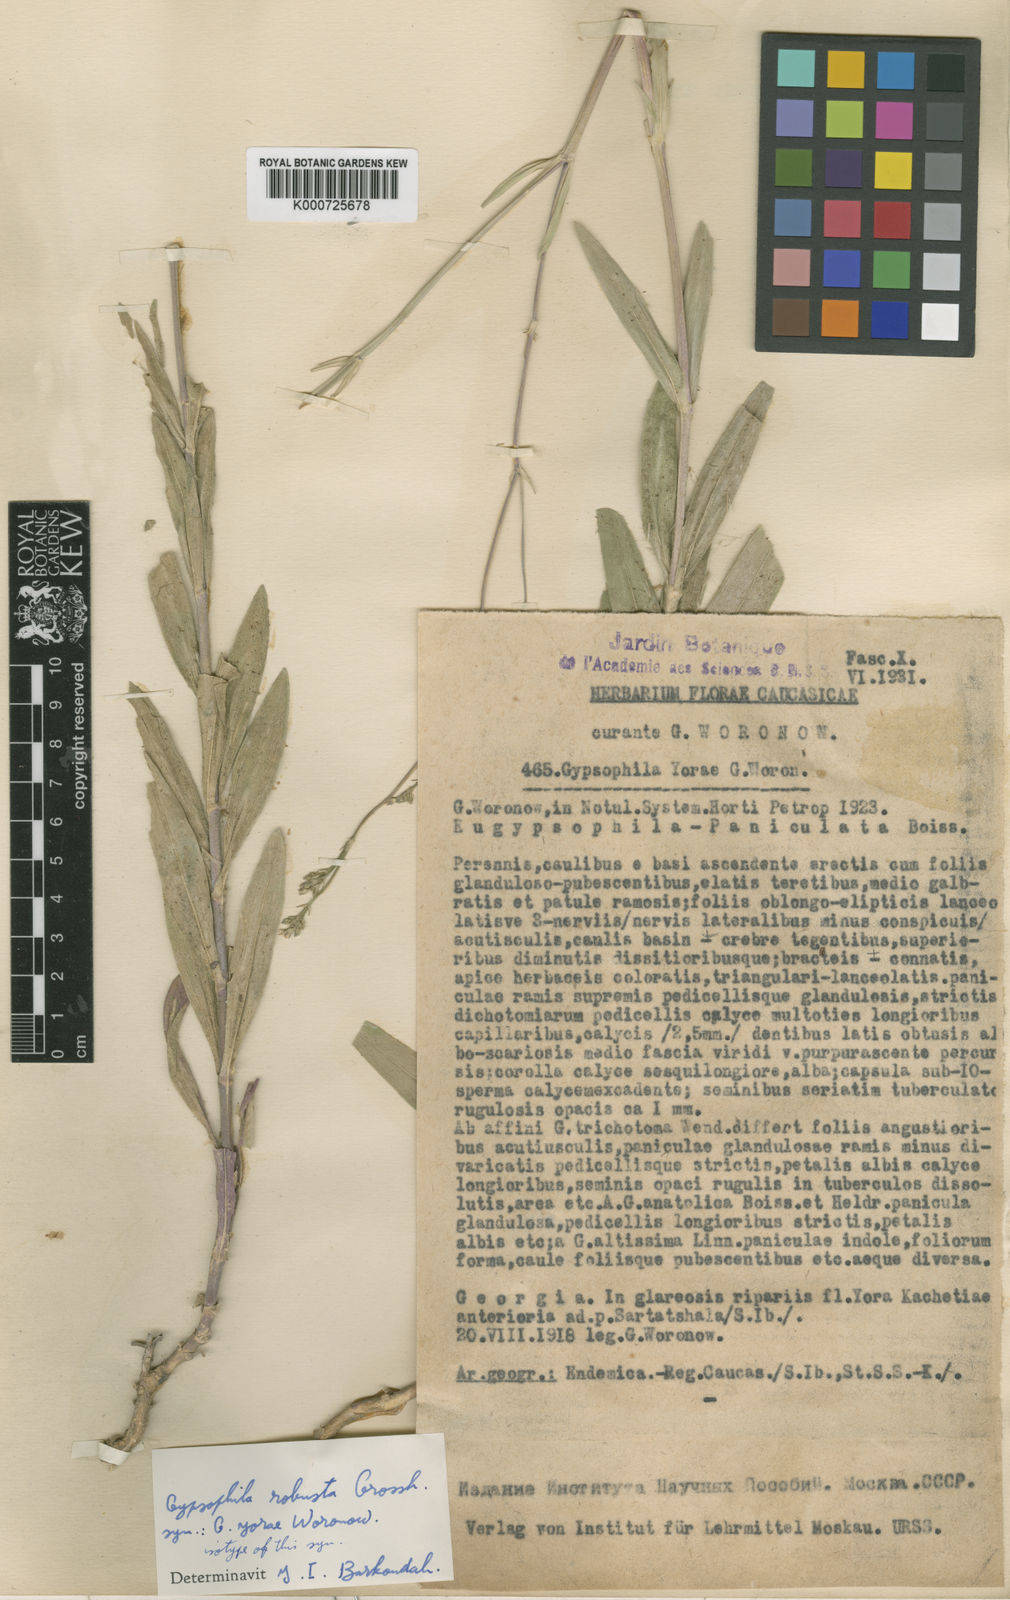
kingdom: Plantae
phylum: Tracheophyta
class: Magnoliopsida
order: Caryophyllales
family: Caryophyllaceae
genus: Gypsophila
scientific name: Gypsophila robusta
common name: Robust chalk plant
